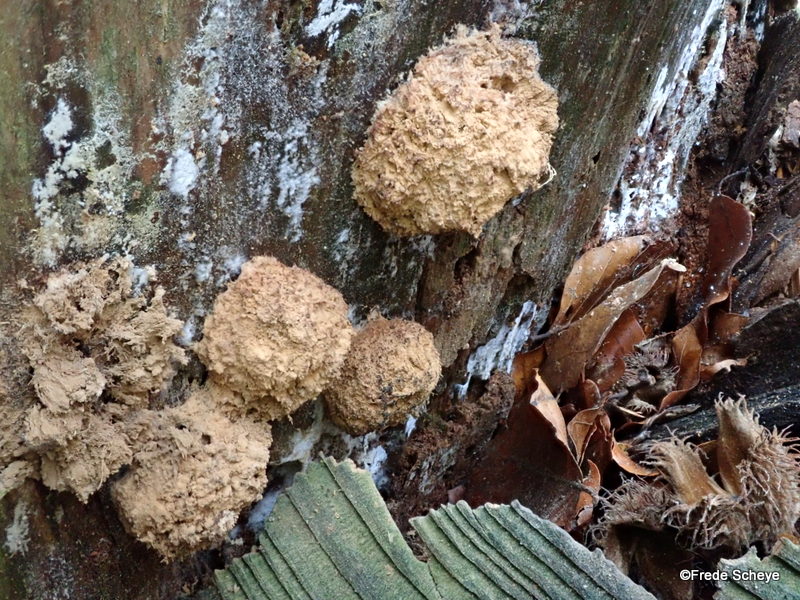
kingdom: Fungi
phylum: Basidiomycota
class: Agaricomycetes
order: Polyporales
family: Dacryobolaceae
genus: Postia
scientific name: Postia ptychogaster
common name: støvende kødporesvamp
